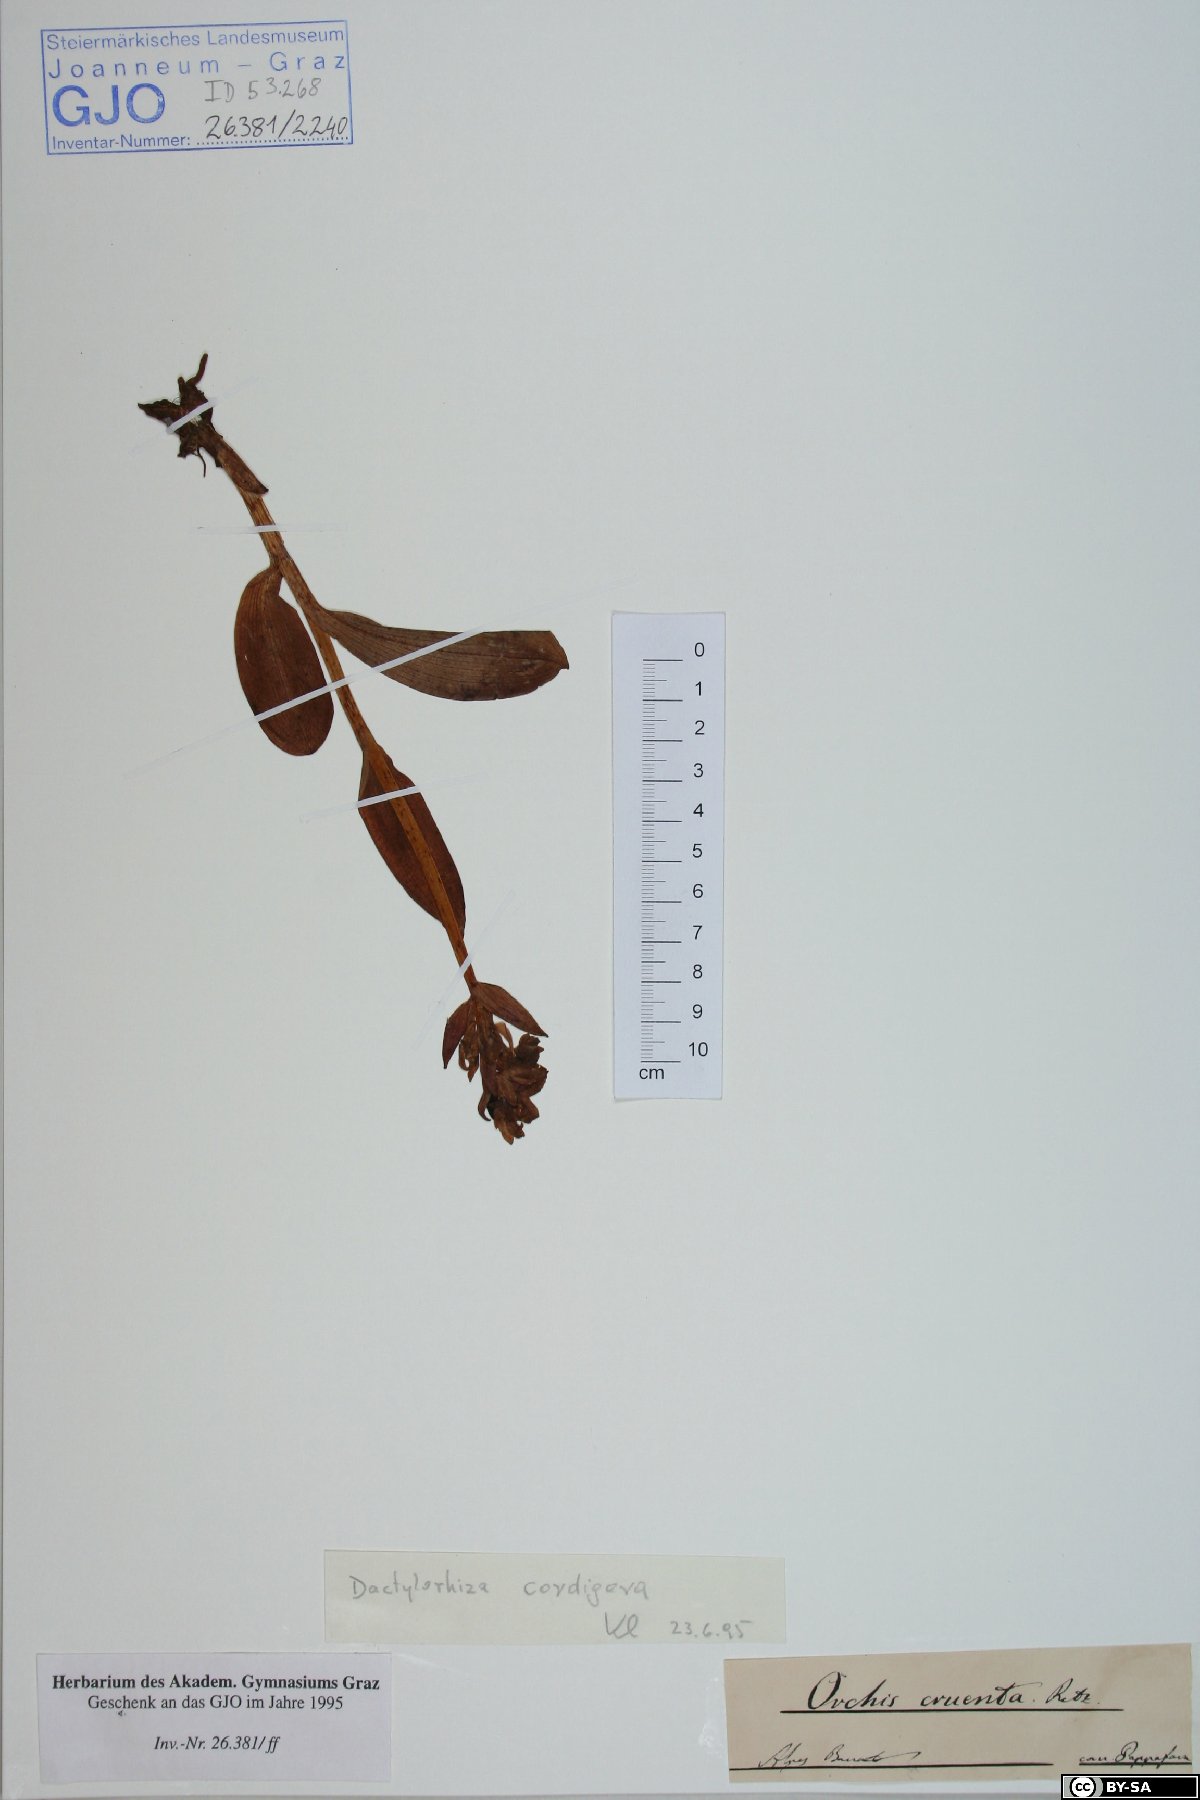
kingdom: Plantae
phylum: Tracheophyta
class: Liliopsida
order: Asparagales
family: Orchidaceae
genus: Dactylorhiza
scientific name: Dactylorhiza majalis
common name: Marsh orchid
